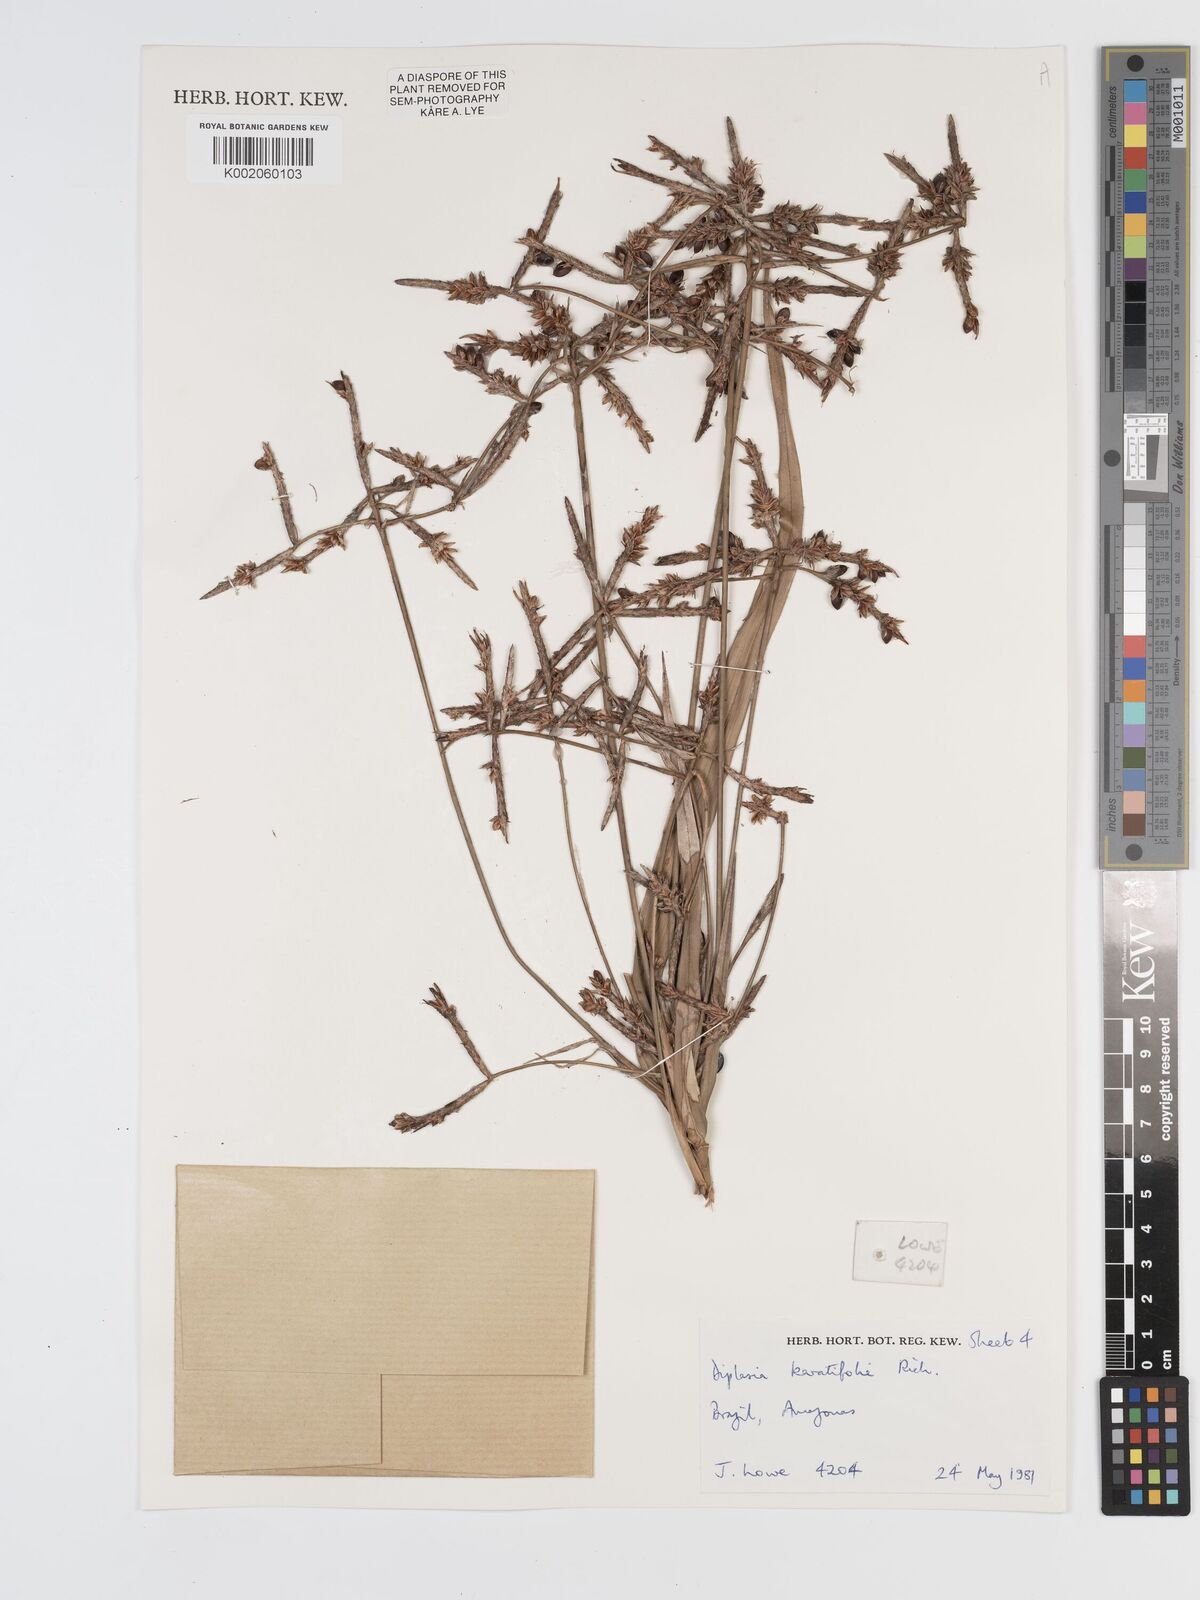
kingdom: Plantae
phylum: Tracheophyta
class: Liliopsida
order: Poales
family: Cyperaceae
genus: Diplasia
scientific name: Diplasia karatifolia
